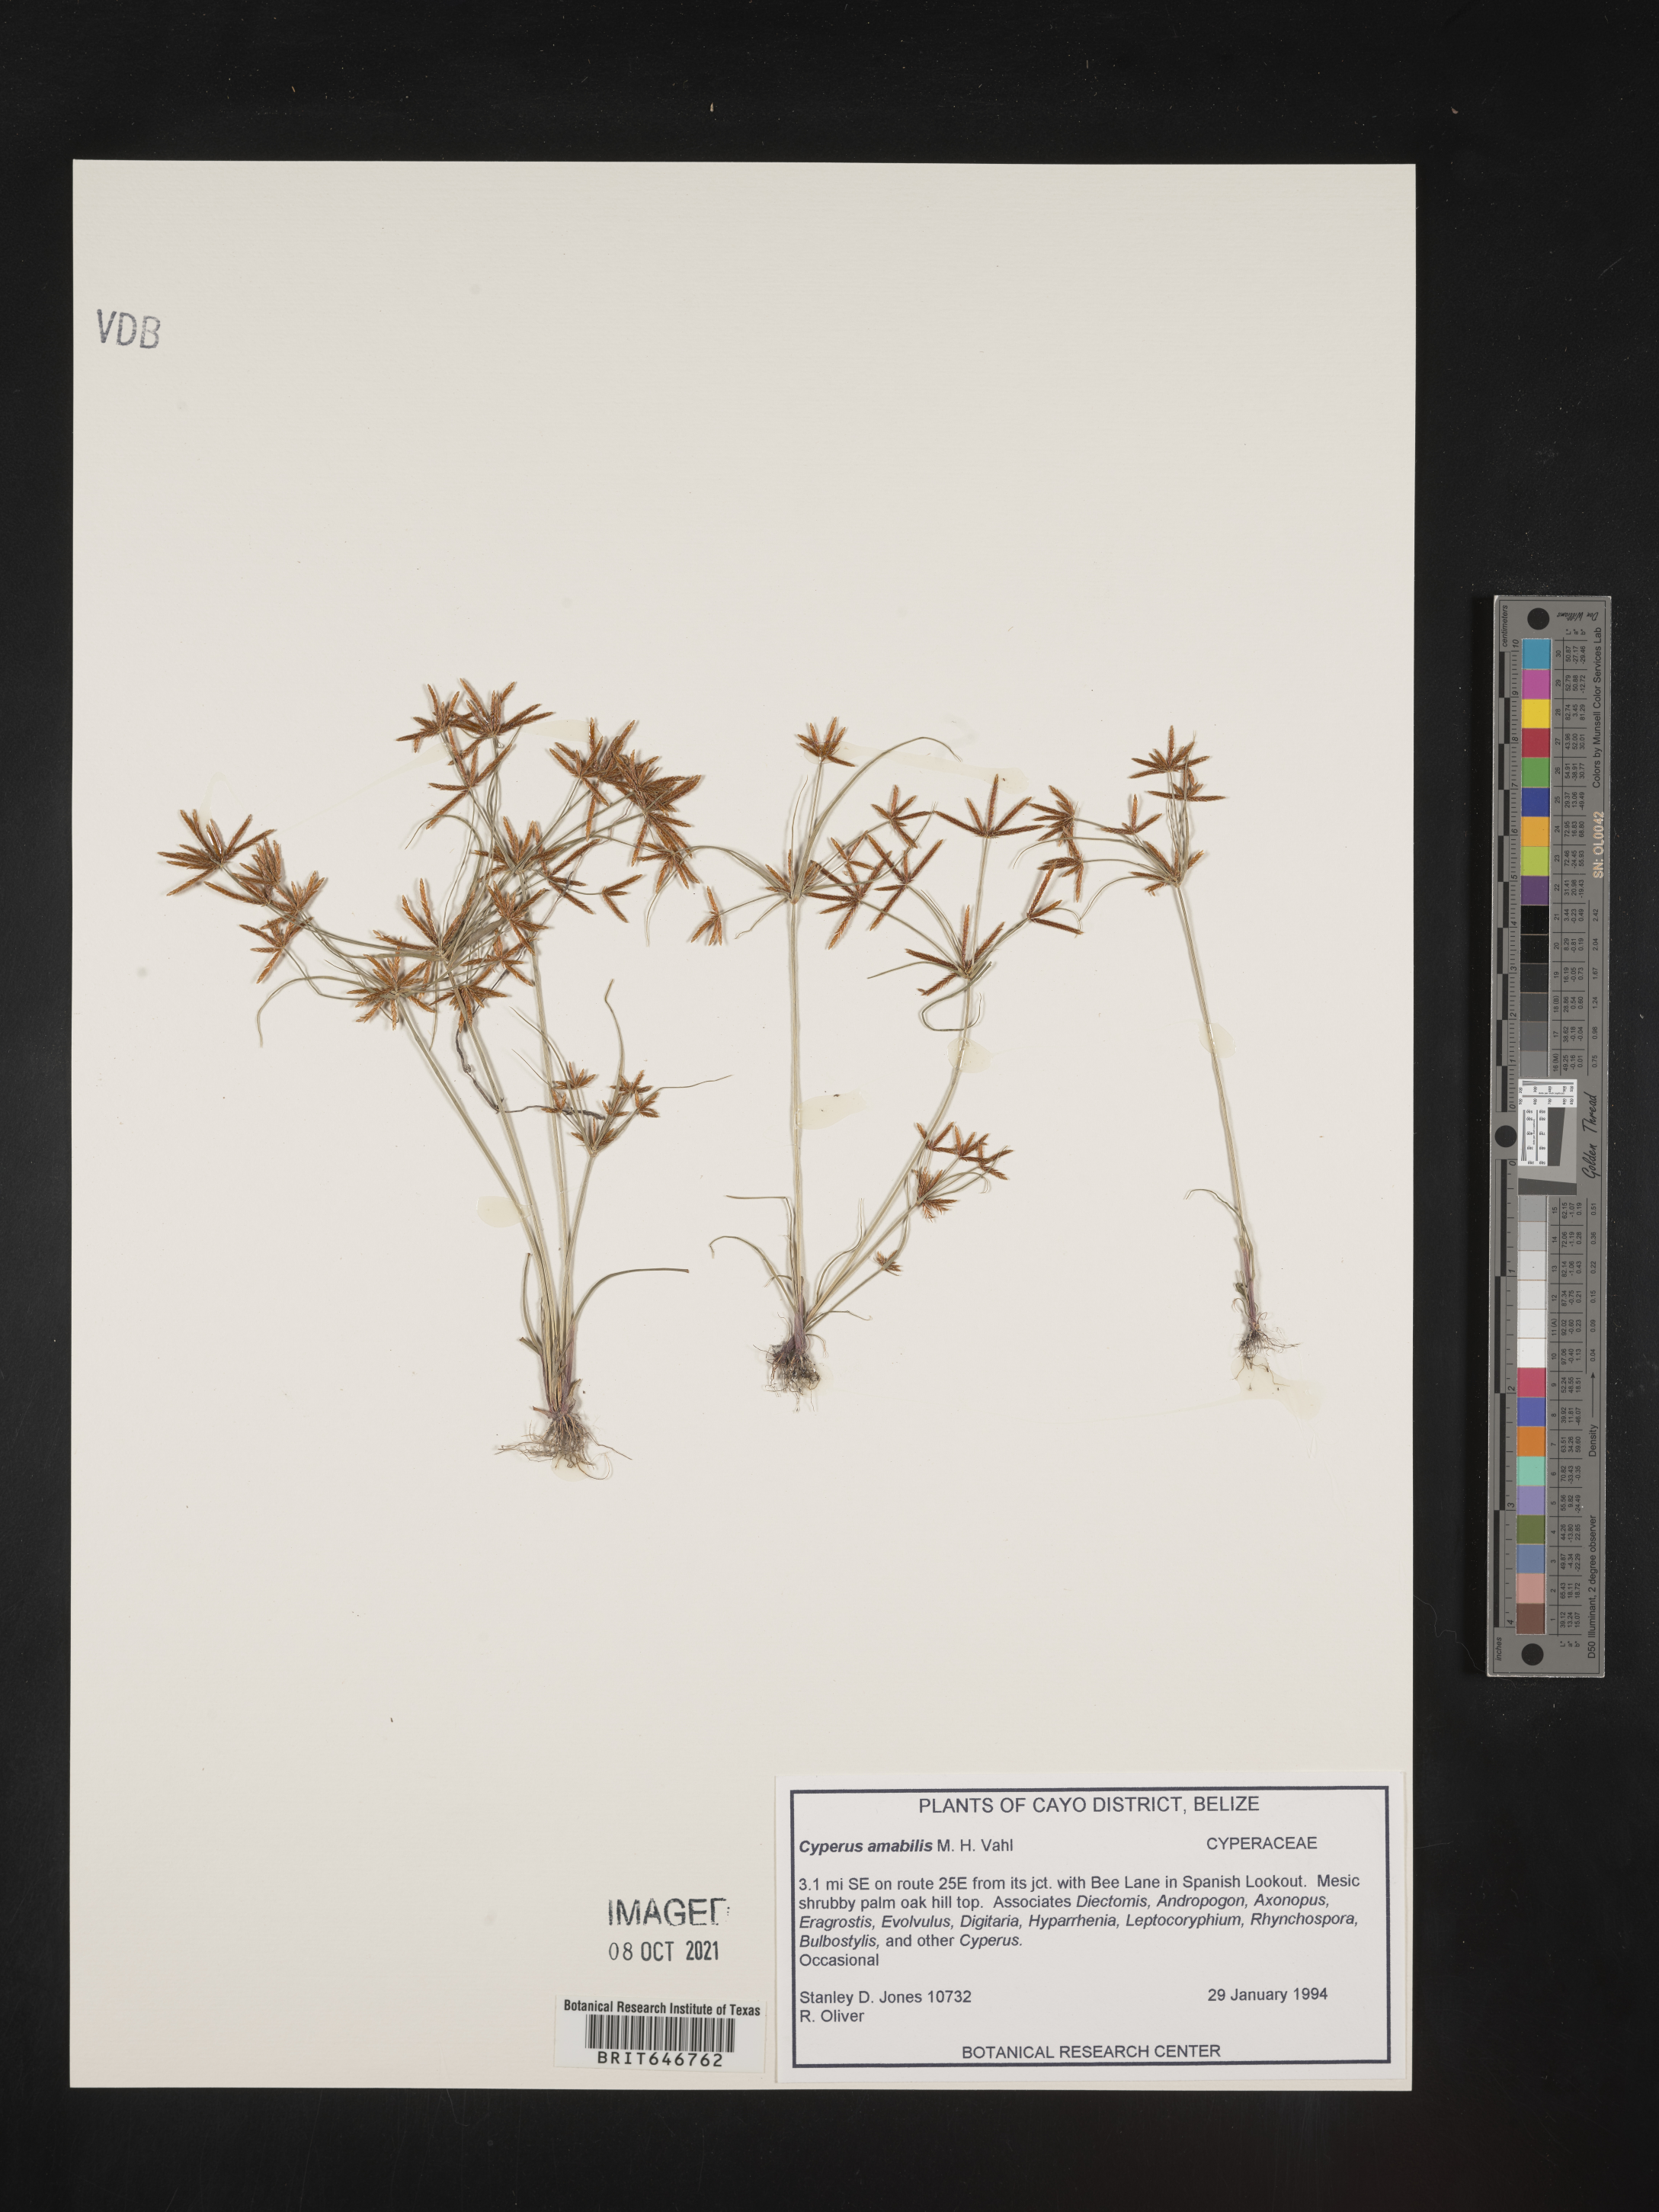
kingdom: Plantae
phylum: Tracheophyta
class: Liliopsida
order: Poales
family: Cyperaceae
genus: Cyperus
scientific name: Cyperus amabilis
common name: Foothill flat sedge
